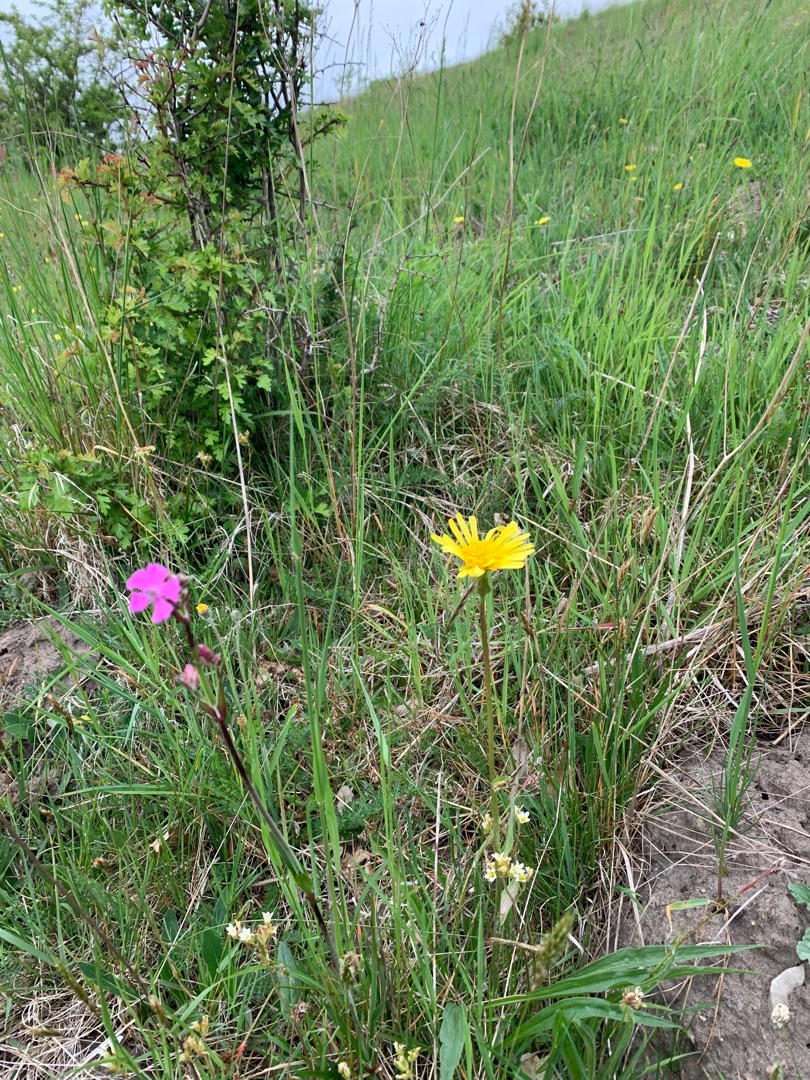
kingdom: Plantae
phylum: Tracheophyta
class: Magnoliopsida
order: Asterales
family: Asteraceae
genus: Scorzonera
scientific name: Scorzonera humilis
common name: Lav skorsoner
